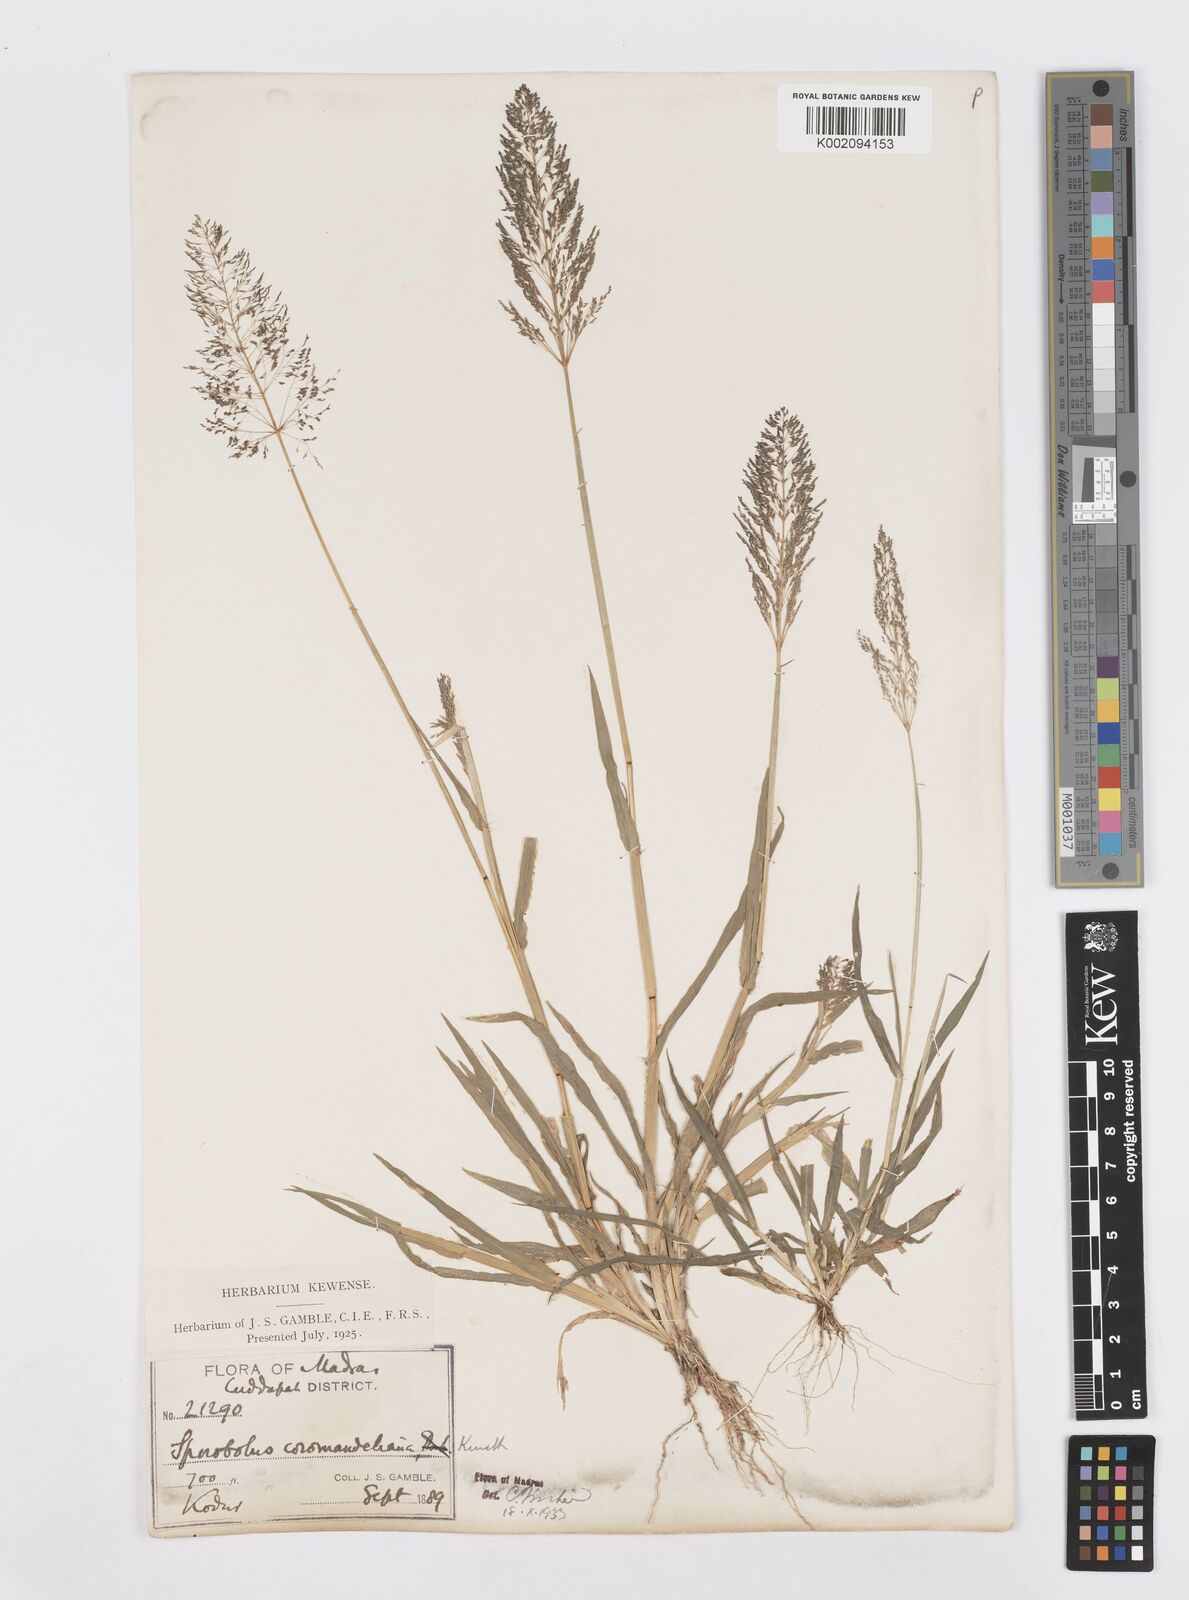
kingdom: Plantae
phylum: Tracheophyta
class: Liliopsida
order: Poales
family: Poaceae
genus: Sporobolus
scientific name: Sporobolus coromandelianus
